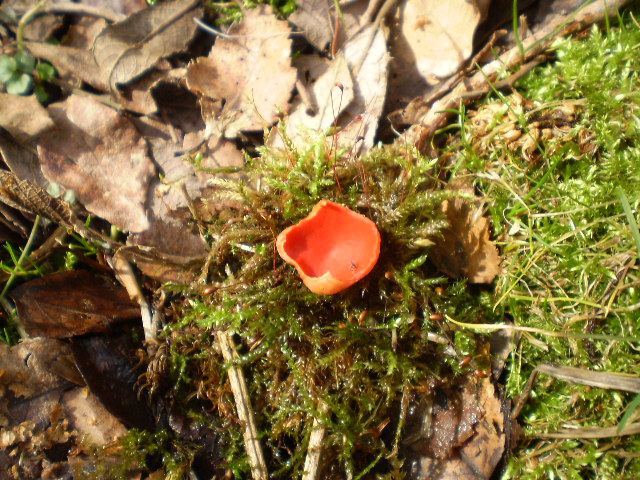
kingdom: Fungi
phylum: Ascomycota
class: Pezizomycetes
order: Pezizales
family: Sarcoscyphaceae
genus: Sarcoscypha
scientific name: Sarcoscypha austriaca
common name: krølhåret pragtbæger
